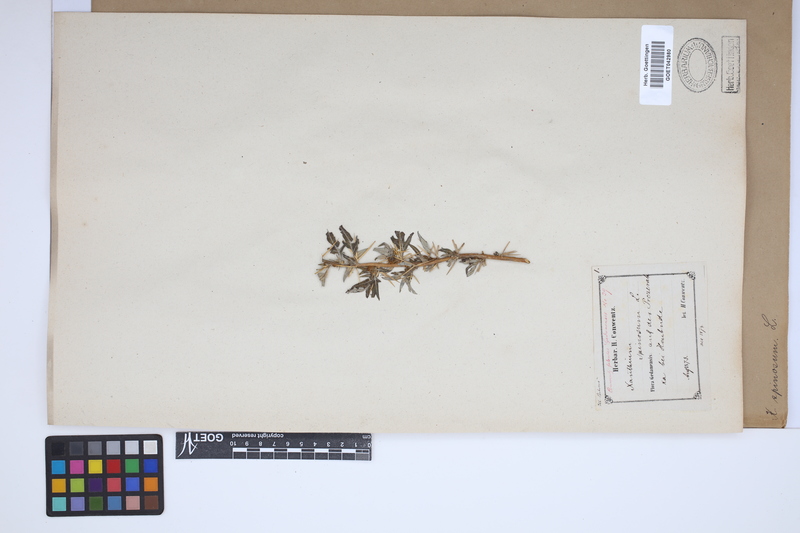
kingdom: Plantae
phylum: Tracheophyta
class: Magnoliopsida
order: Asterales
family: Asteraceae
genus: Xanthium
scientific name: Xanthium spinosum
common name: Spiny cocklebur
